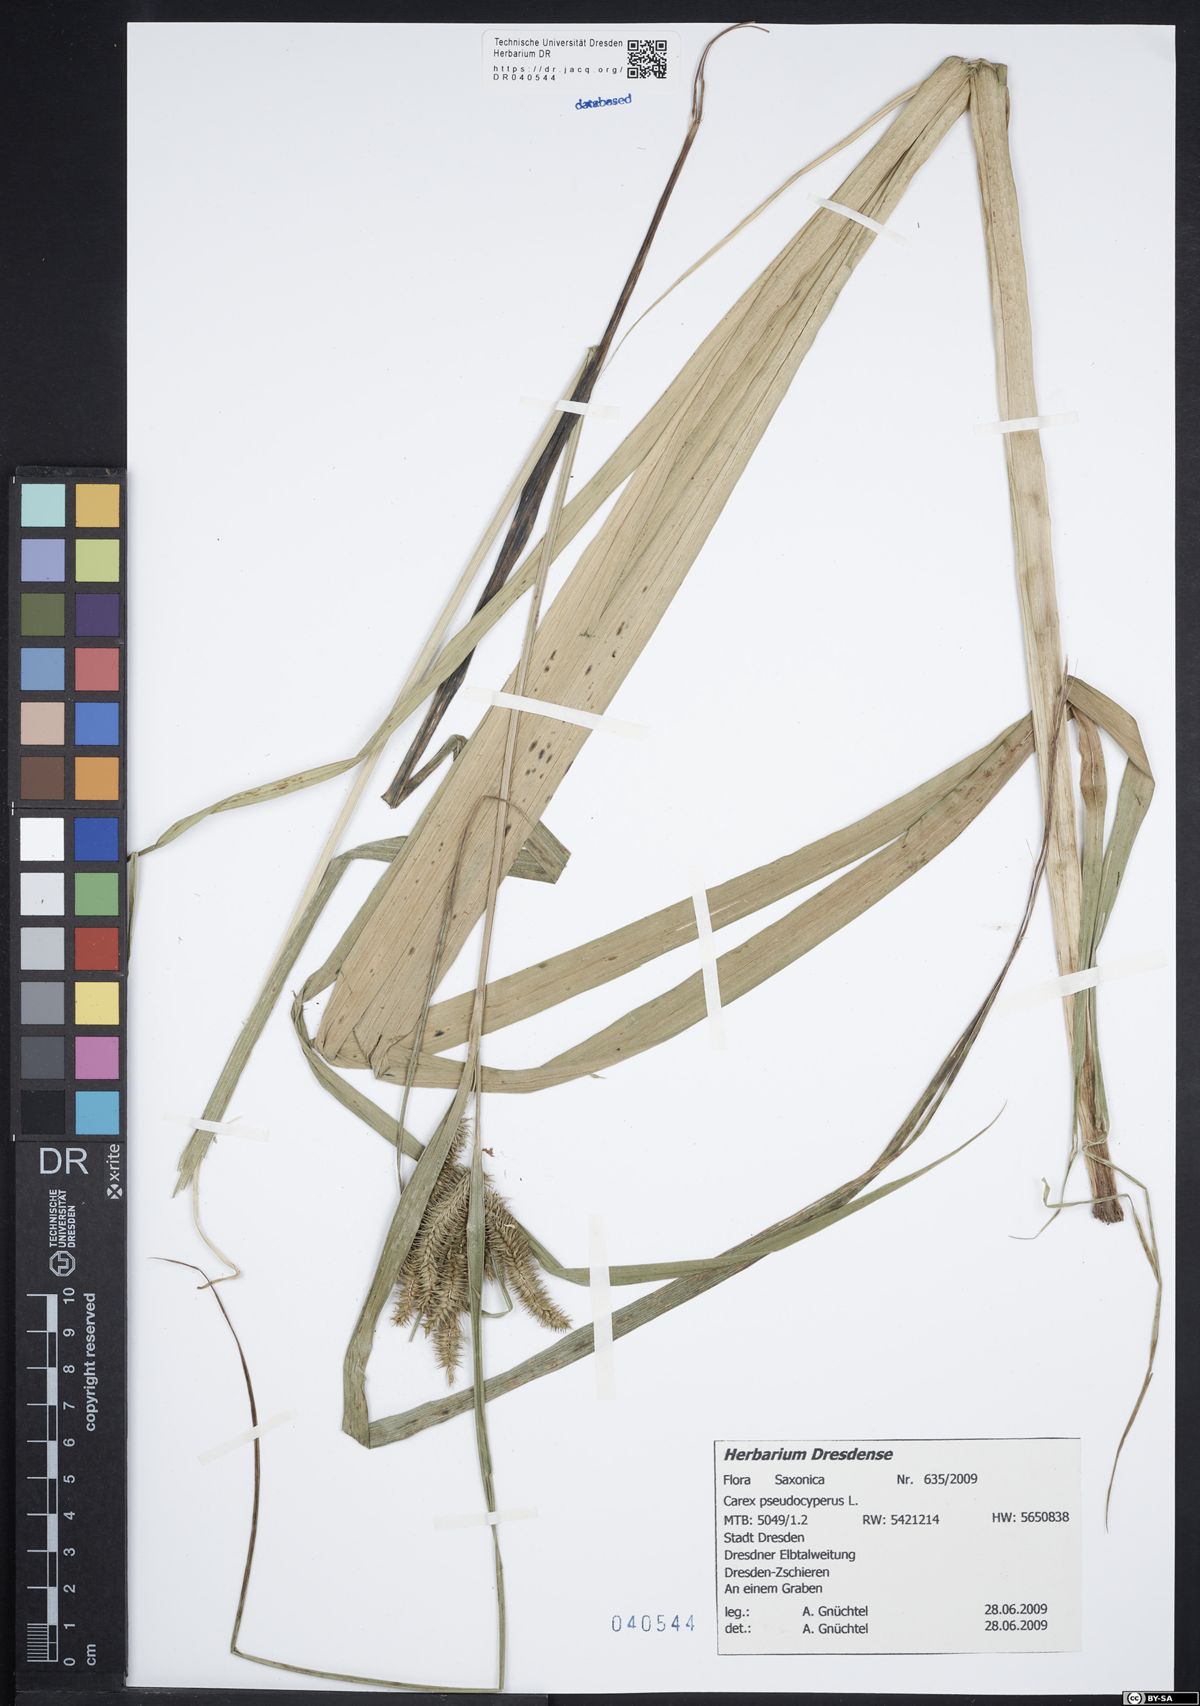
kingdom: Plantae
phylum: Tracheophyta
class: Liliopsida
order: Poales
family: Cyperaceae
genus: Carex
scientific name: Carex pseudocyperus
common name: Cyperus sedge
